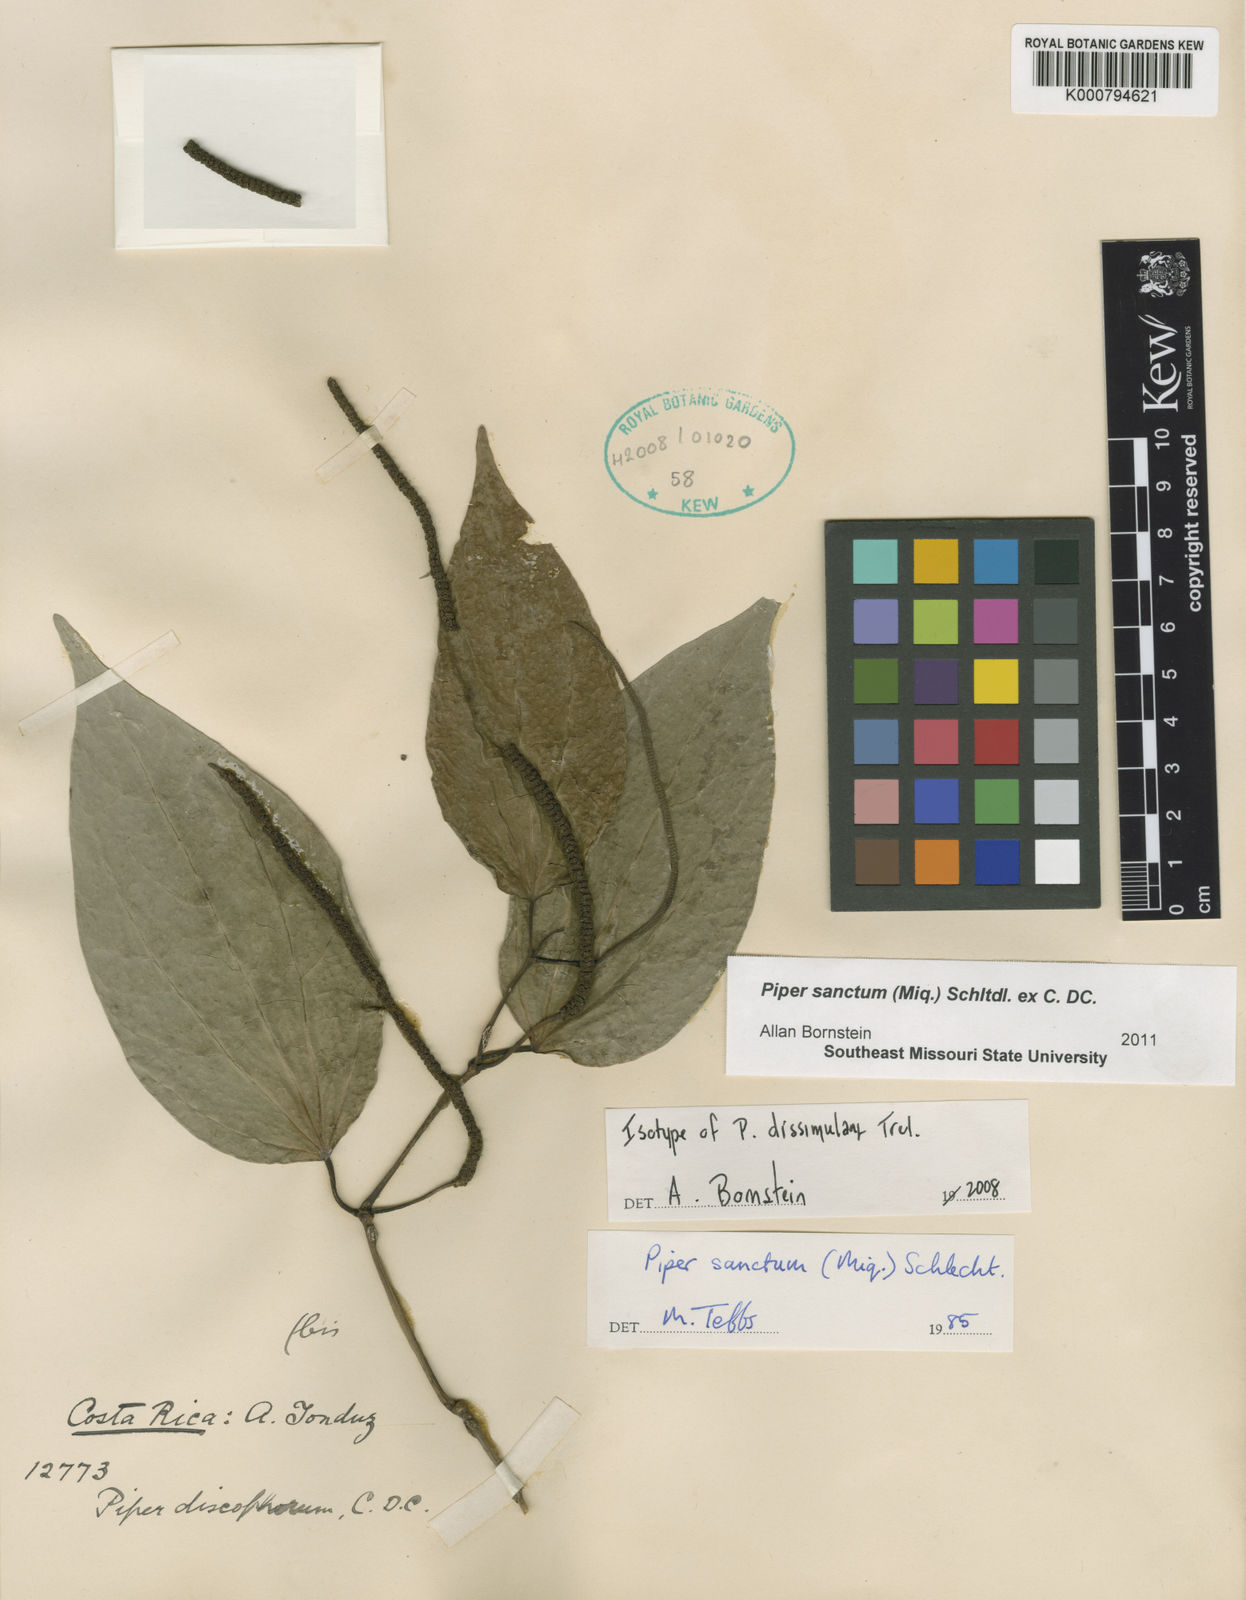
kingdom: Plantae
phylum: Tracheophyta
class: Magnoliopsida
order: Piperales
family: Piperaceae
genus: Piper
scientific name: Piper auritum
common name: Vera cruz pepper
